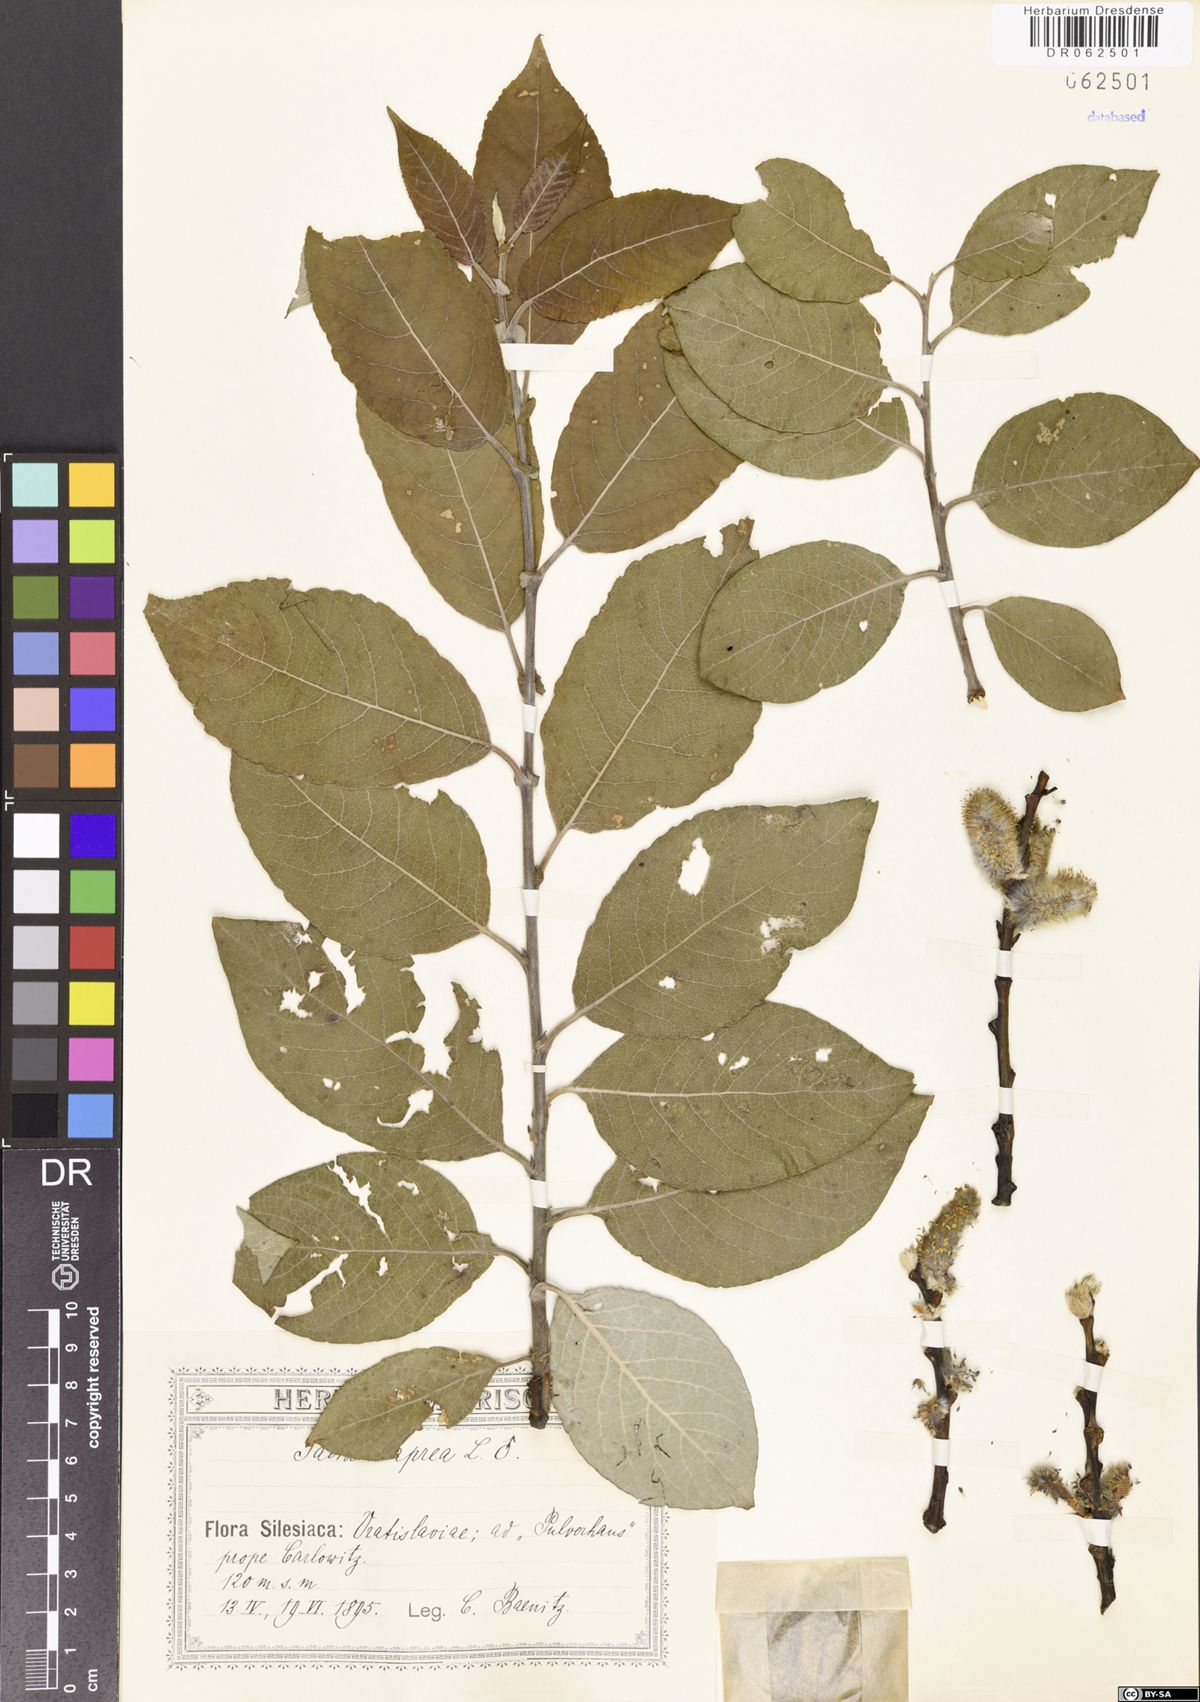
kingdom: Plantae
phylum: Tracheophyta
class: Magnoliopsida
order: Malpighiales
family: Salicaceae
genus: Salix
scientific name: Salix caprea
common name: Goat willow
